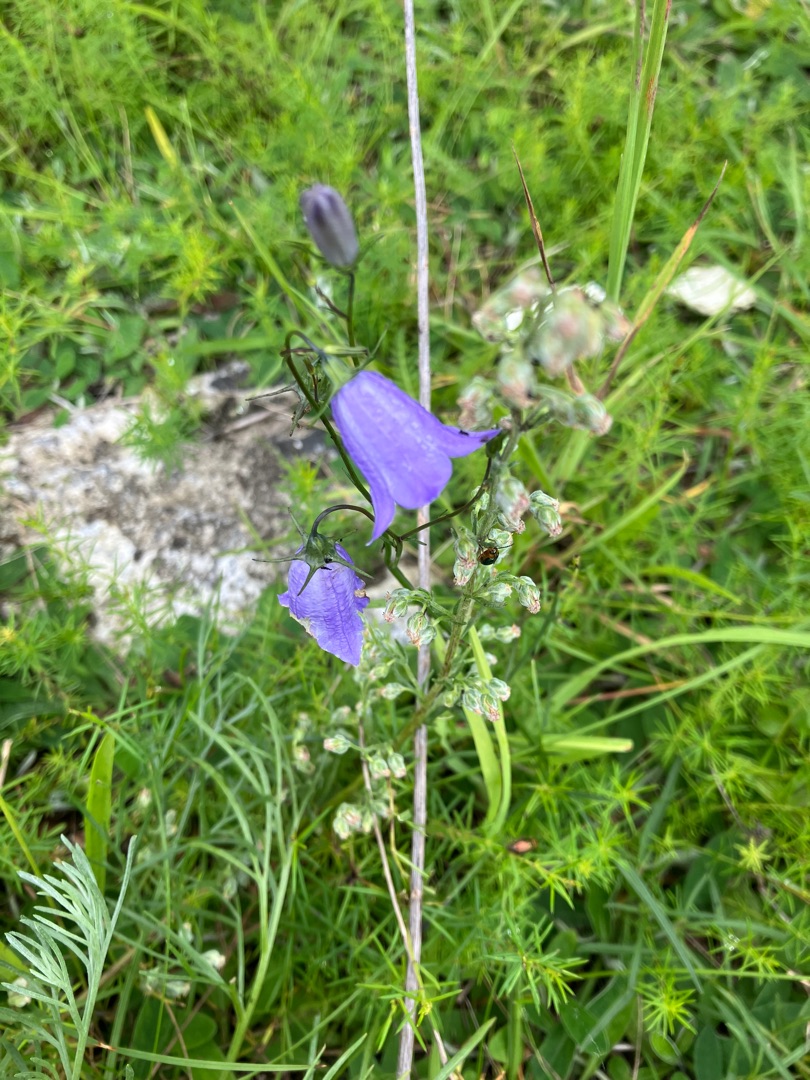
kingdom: Plantae
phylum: Tracheophyta
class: Magnoliopsida
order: Asterales
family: Campanulaceae
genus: Campanula
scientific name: Campanula rotundifolia
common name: Liden klokke
